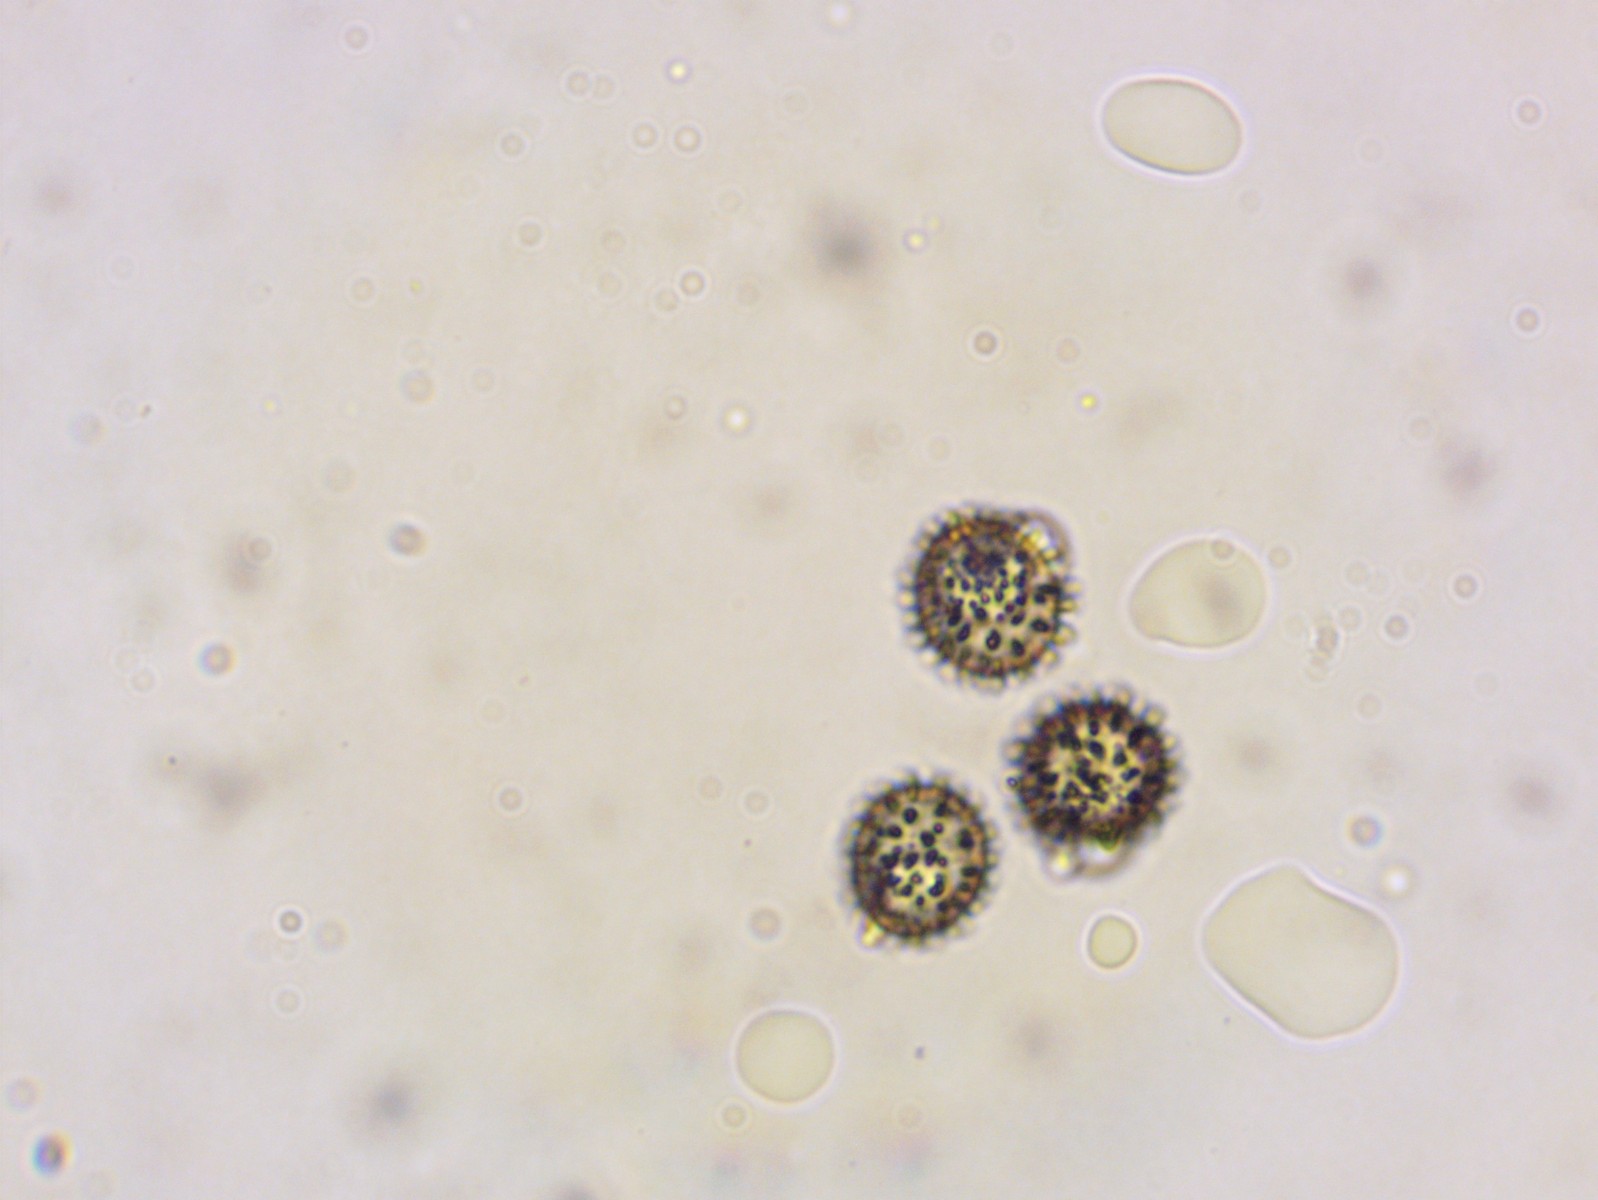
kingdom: Fungi
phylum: Basidiomycota
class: Agaricomycetes
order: Russulales
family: Russulaceae
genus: Russula
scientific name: Russula maculata
